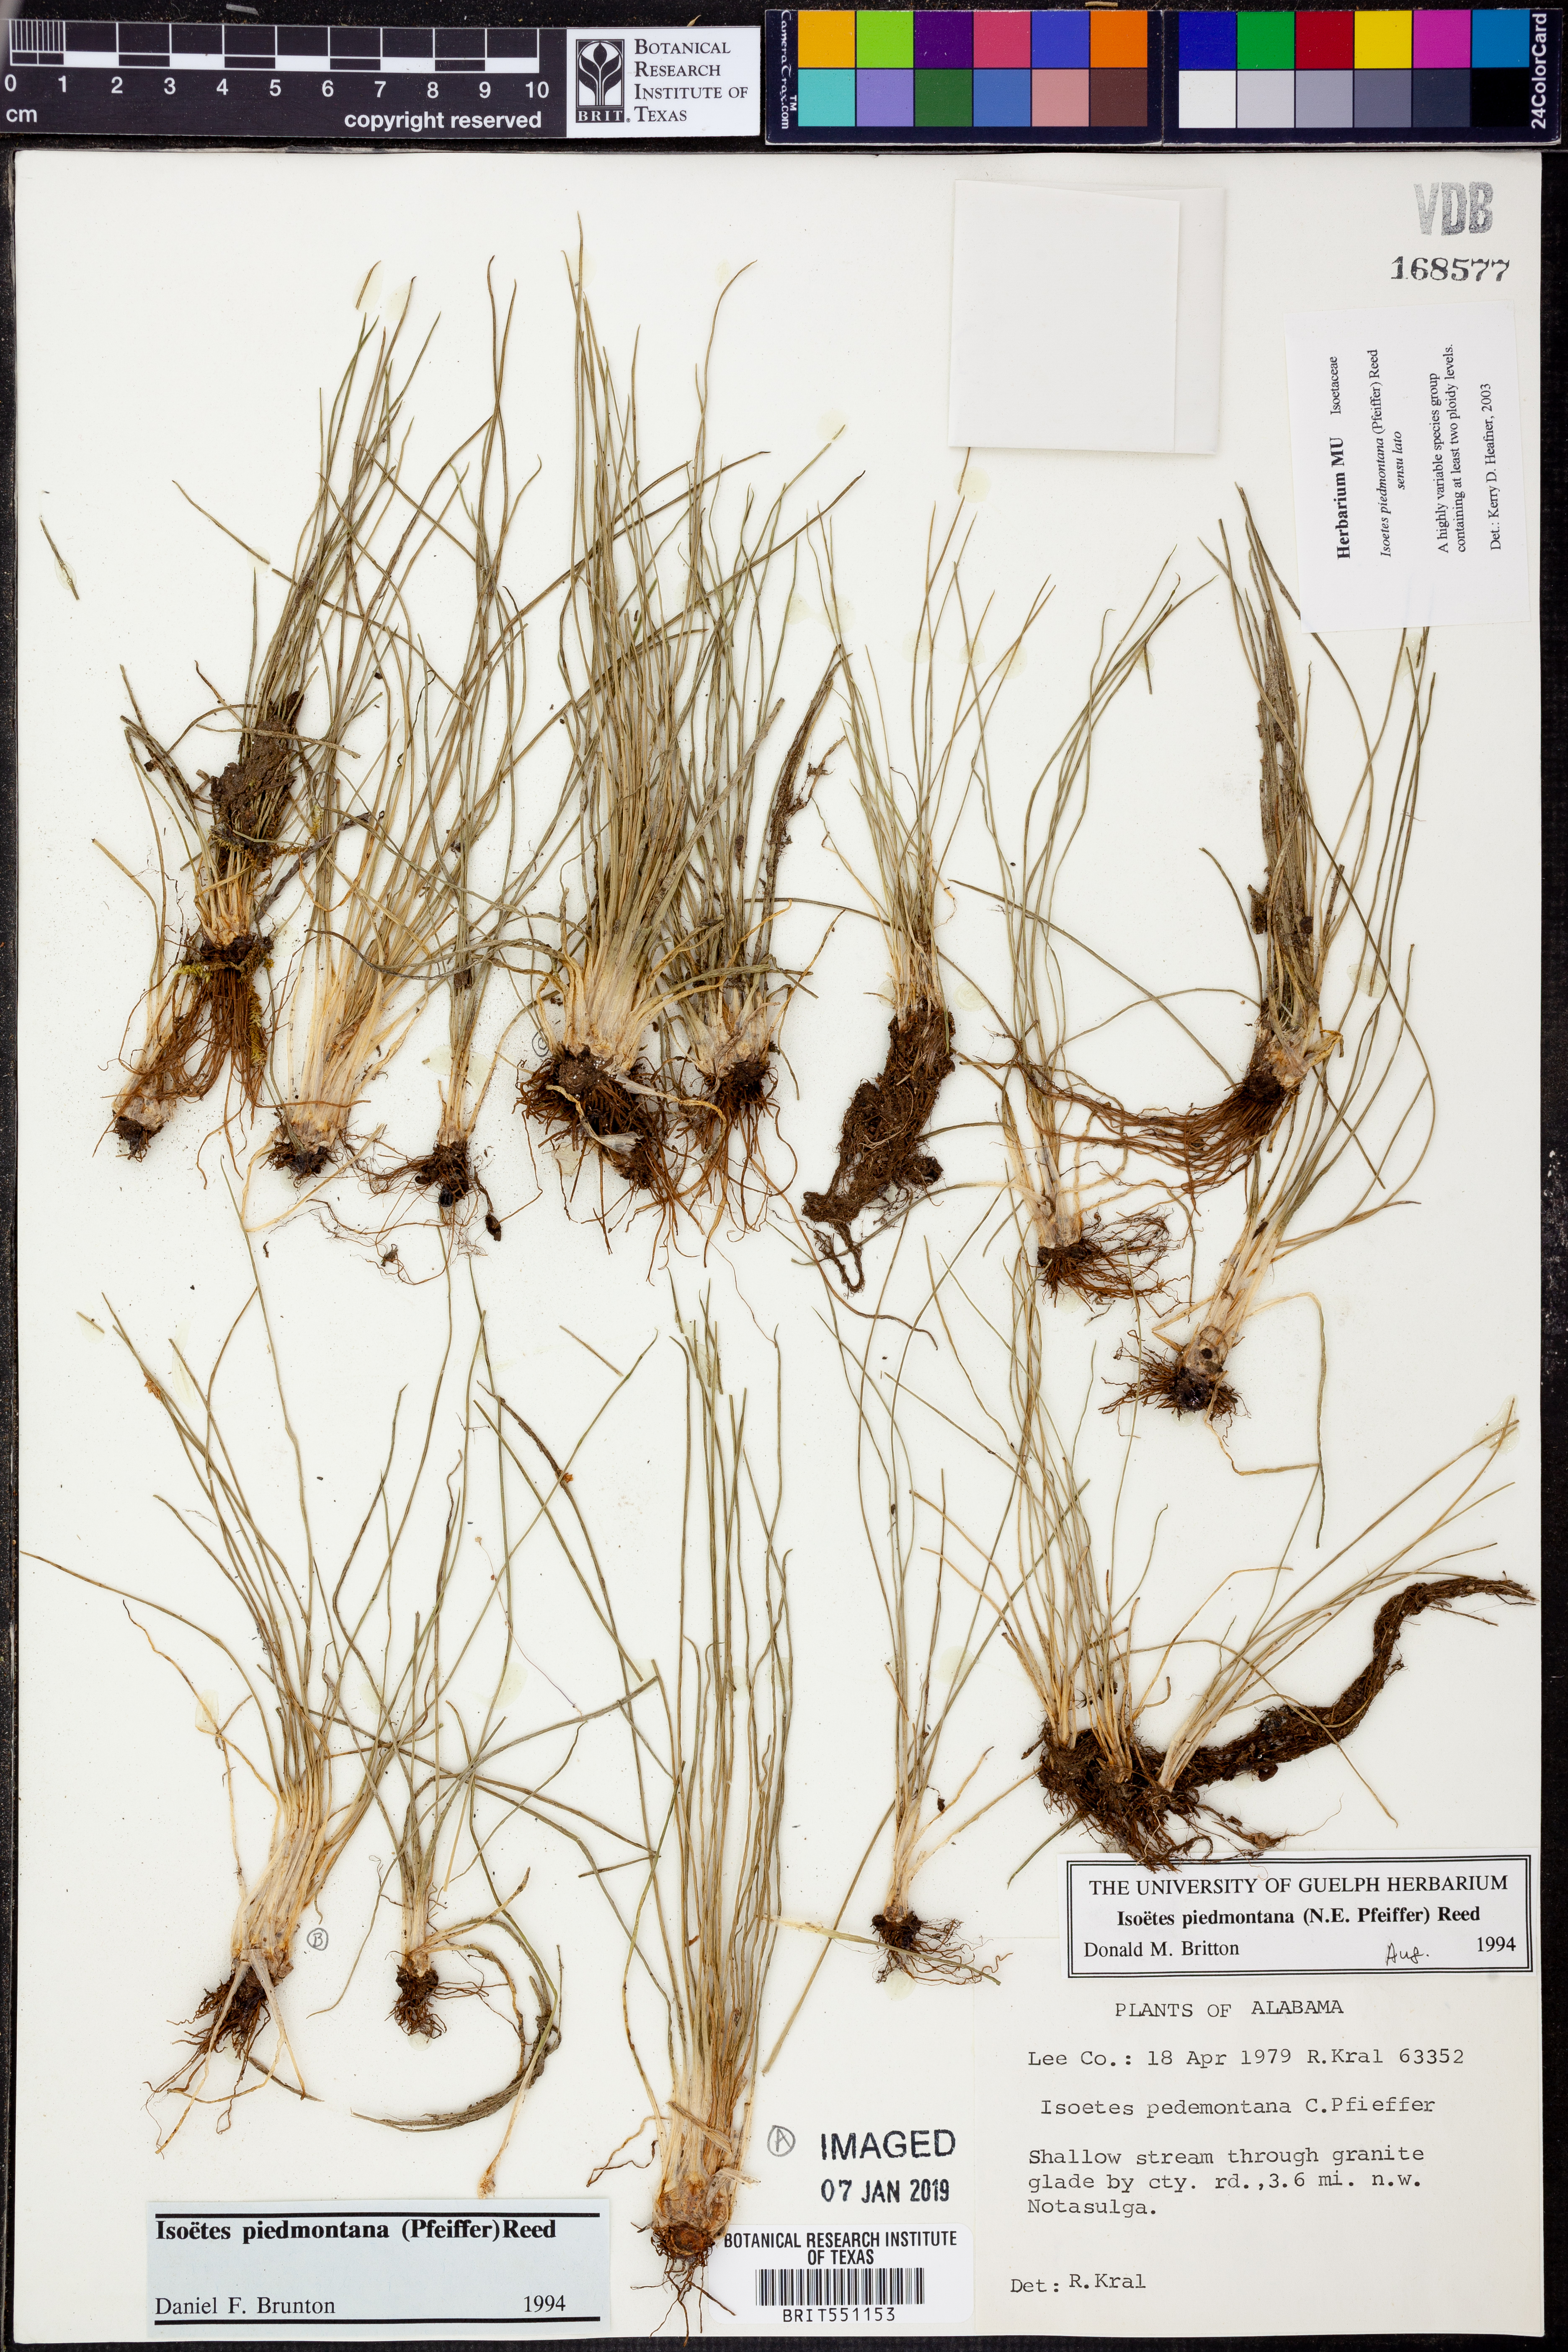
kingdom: Plantae
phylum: Tracheophyta
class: Lycopodiopsida
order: Isoetales
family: Isoetaceae
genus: Isoetes
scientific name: Isoetes virginica
